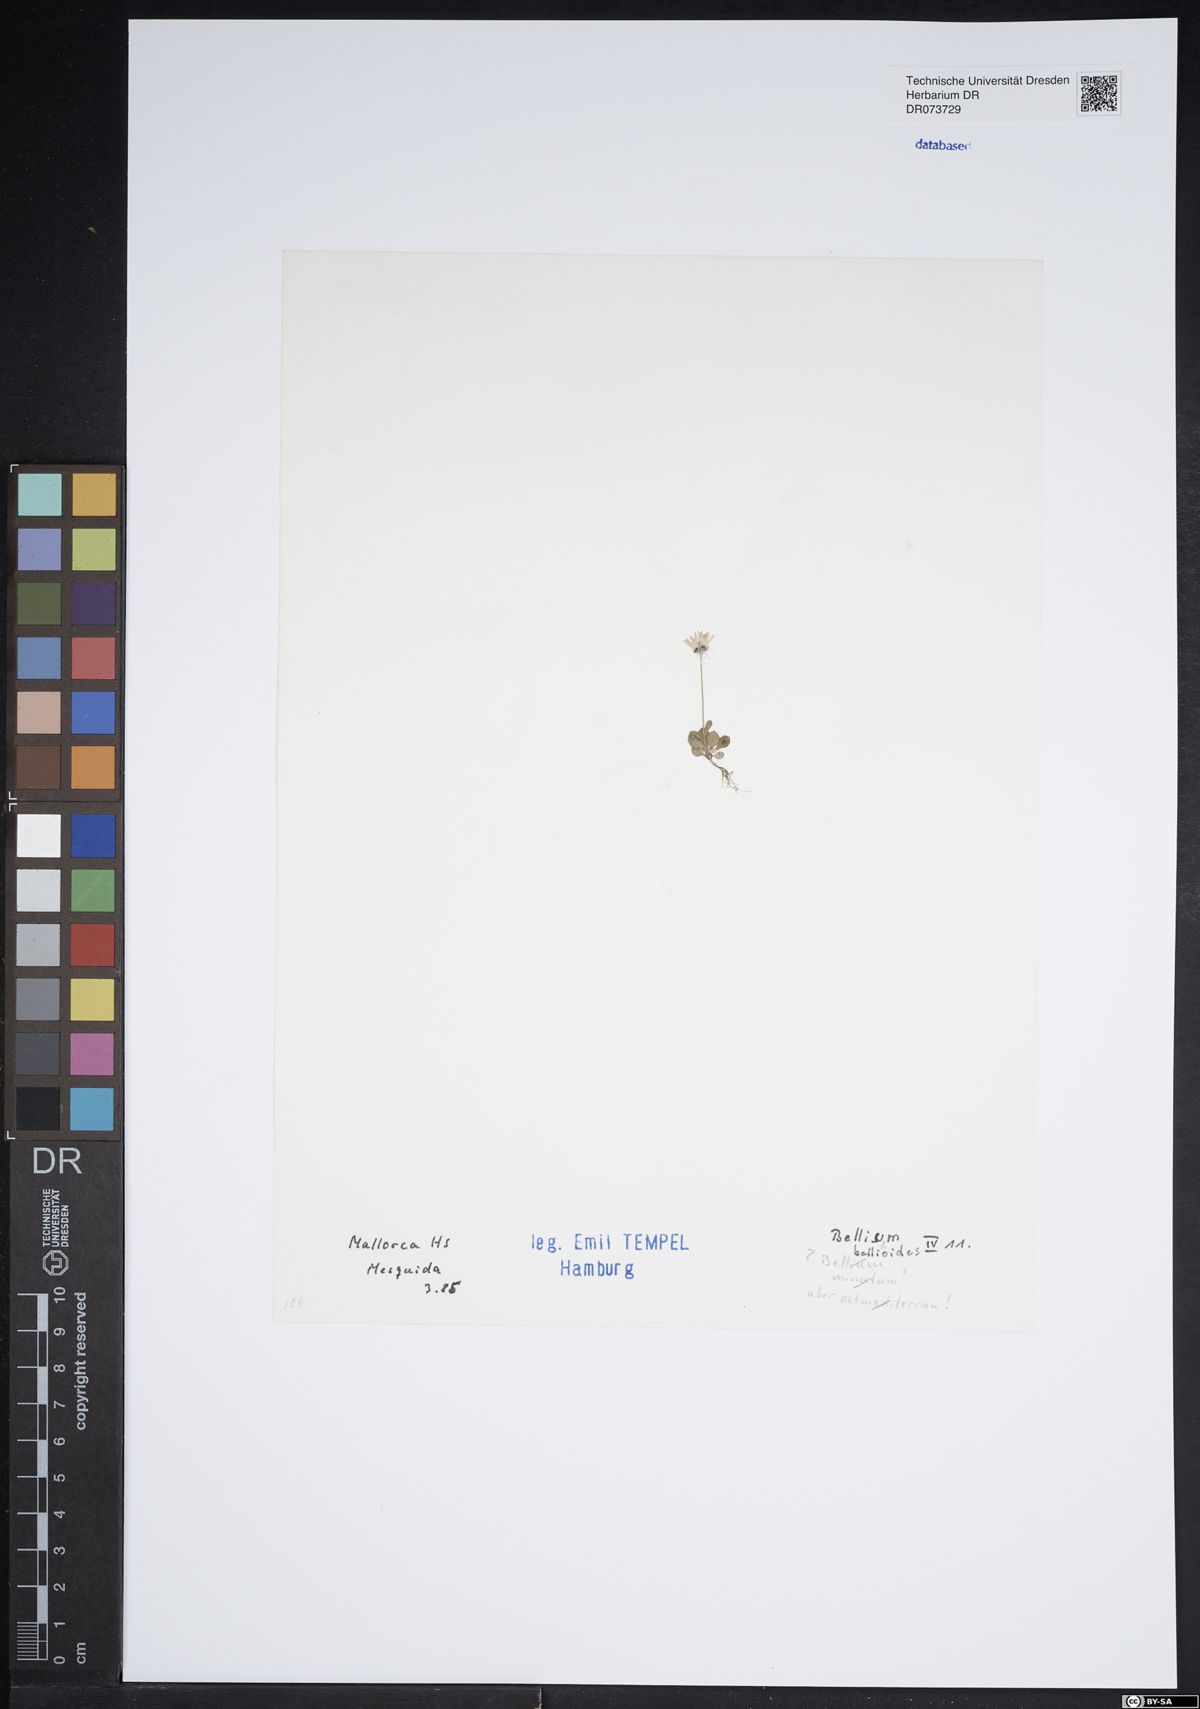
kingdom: Plantae
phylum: Tracheophyta
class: Magnoliopsida
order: Asterales
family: Asteraceae
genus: Bellium
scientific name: Bellium bellidioides
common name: False daisy
